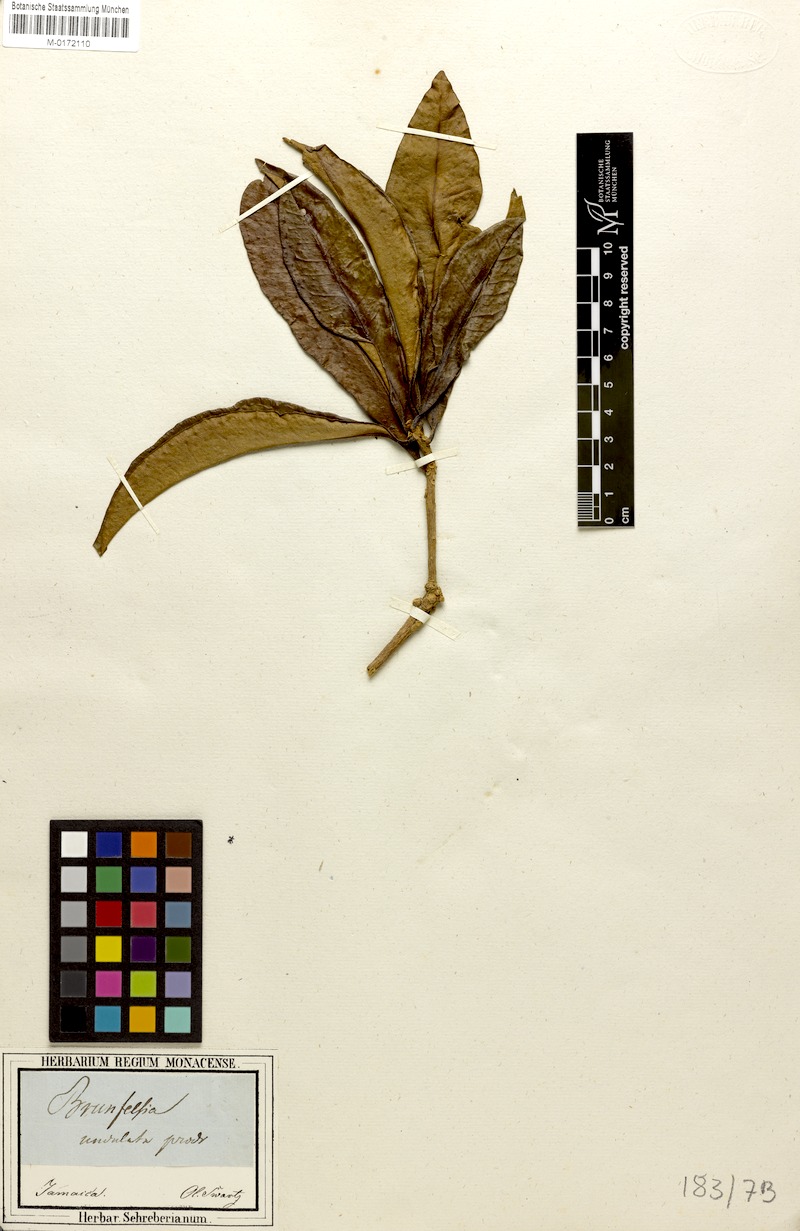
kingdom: Plantae
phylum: Tracheophyta
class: Magnoliopsida
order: Solanales
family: Solanaceae
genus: Brunfelsia
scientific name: Brunfelsia undulata
